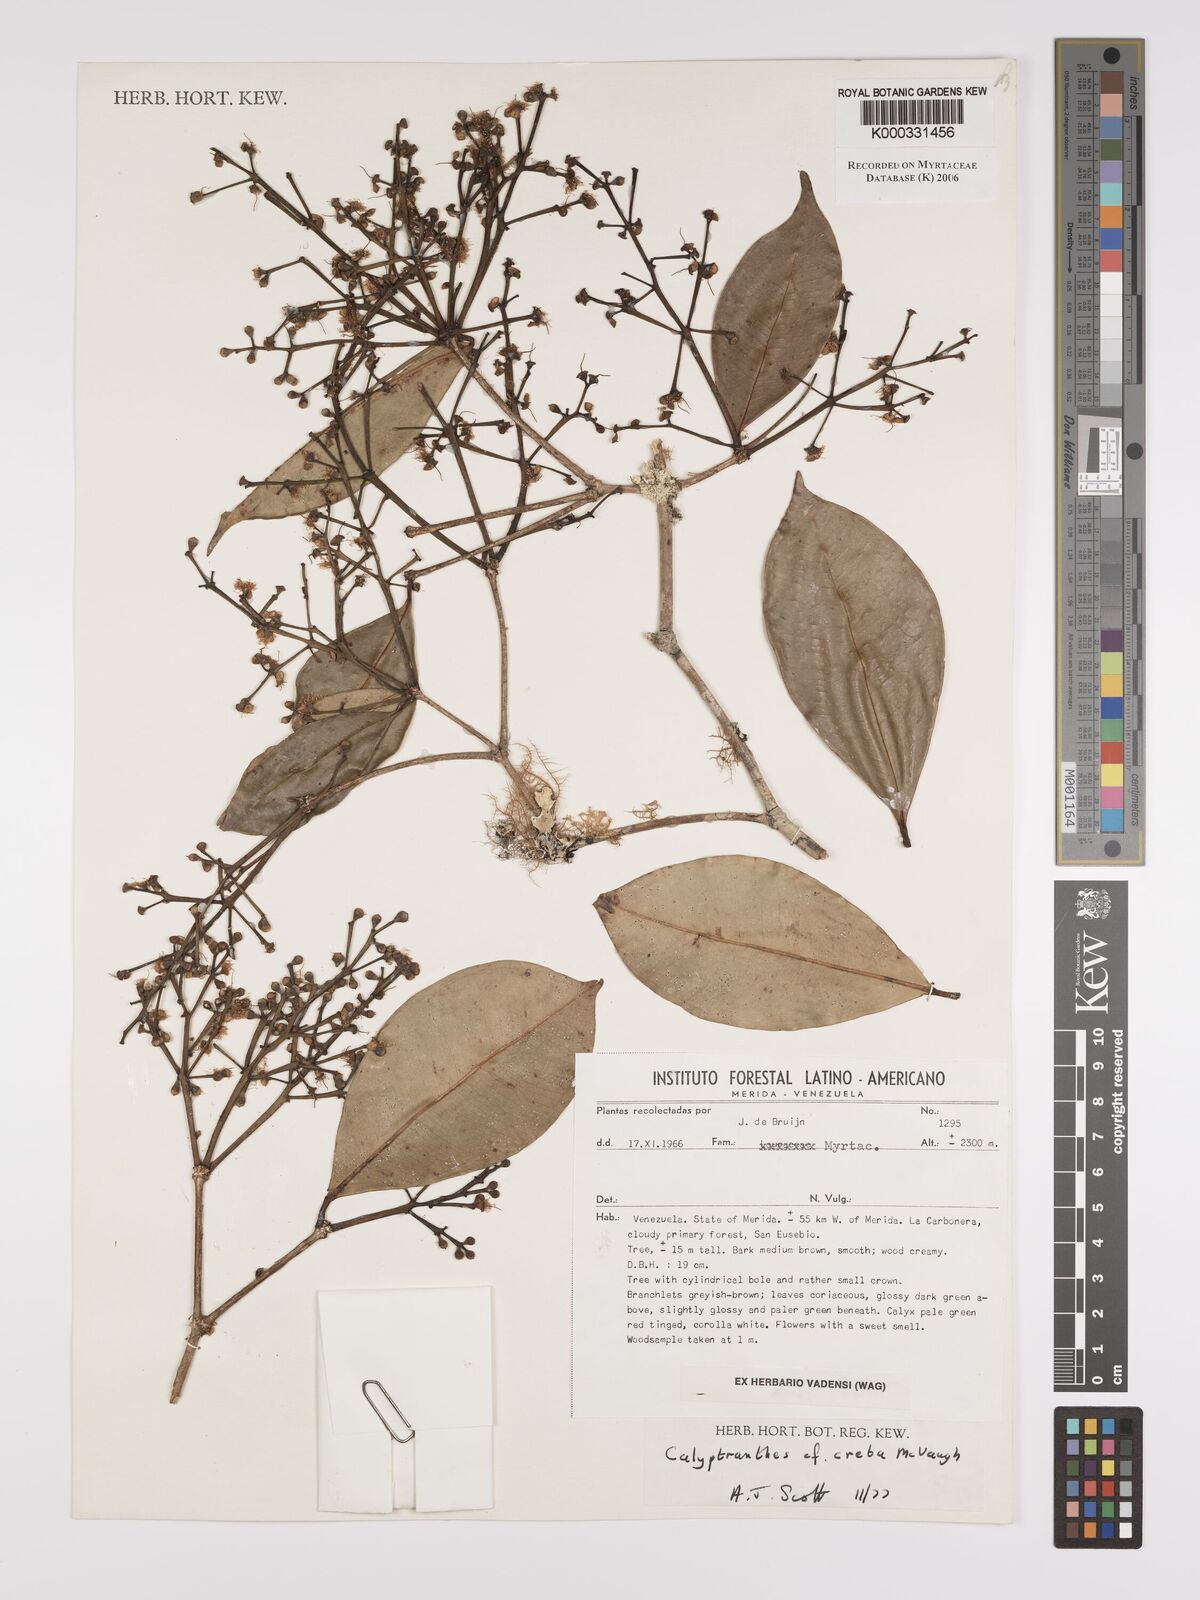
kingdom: Plantae
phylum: Tracheophyta
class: Magnoliopsida
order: Myrtales
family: Myrtaceae
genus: Calyptranthes
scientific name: Calyptranthes
